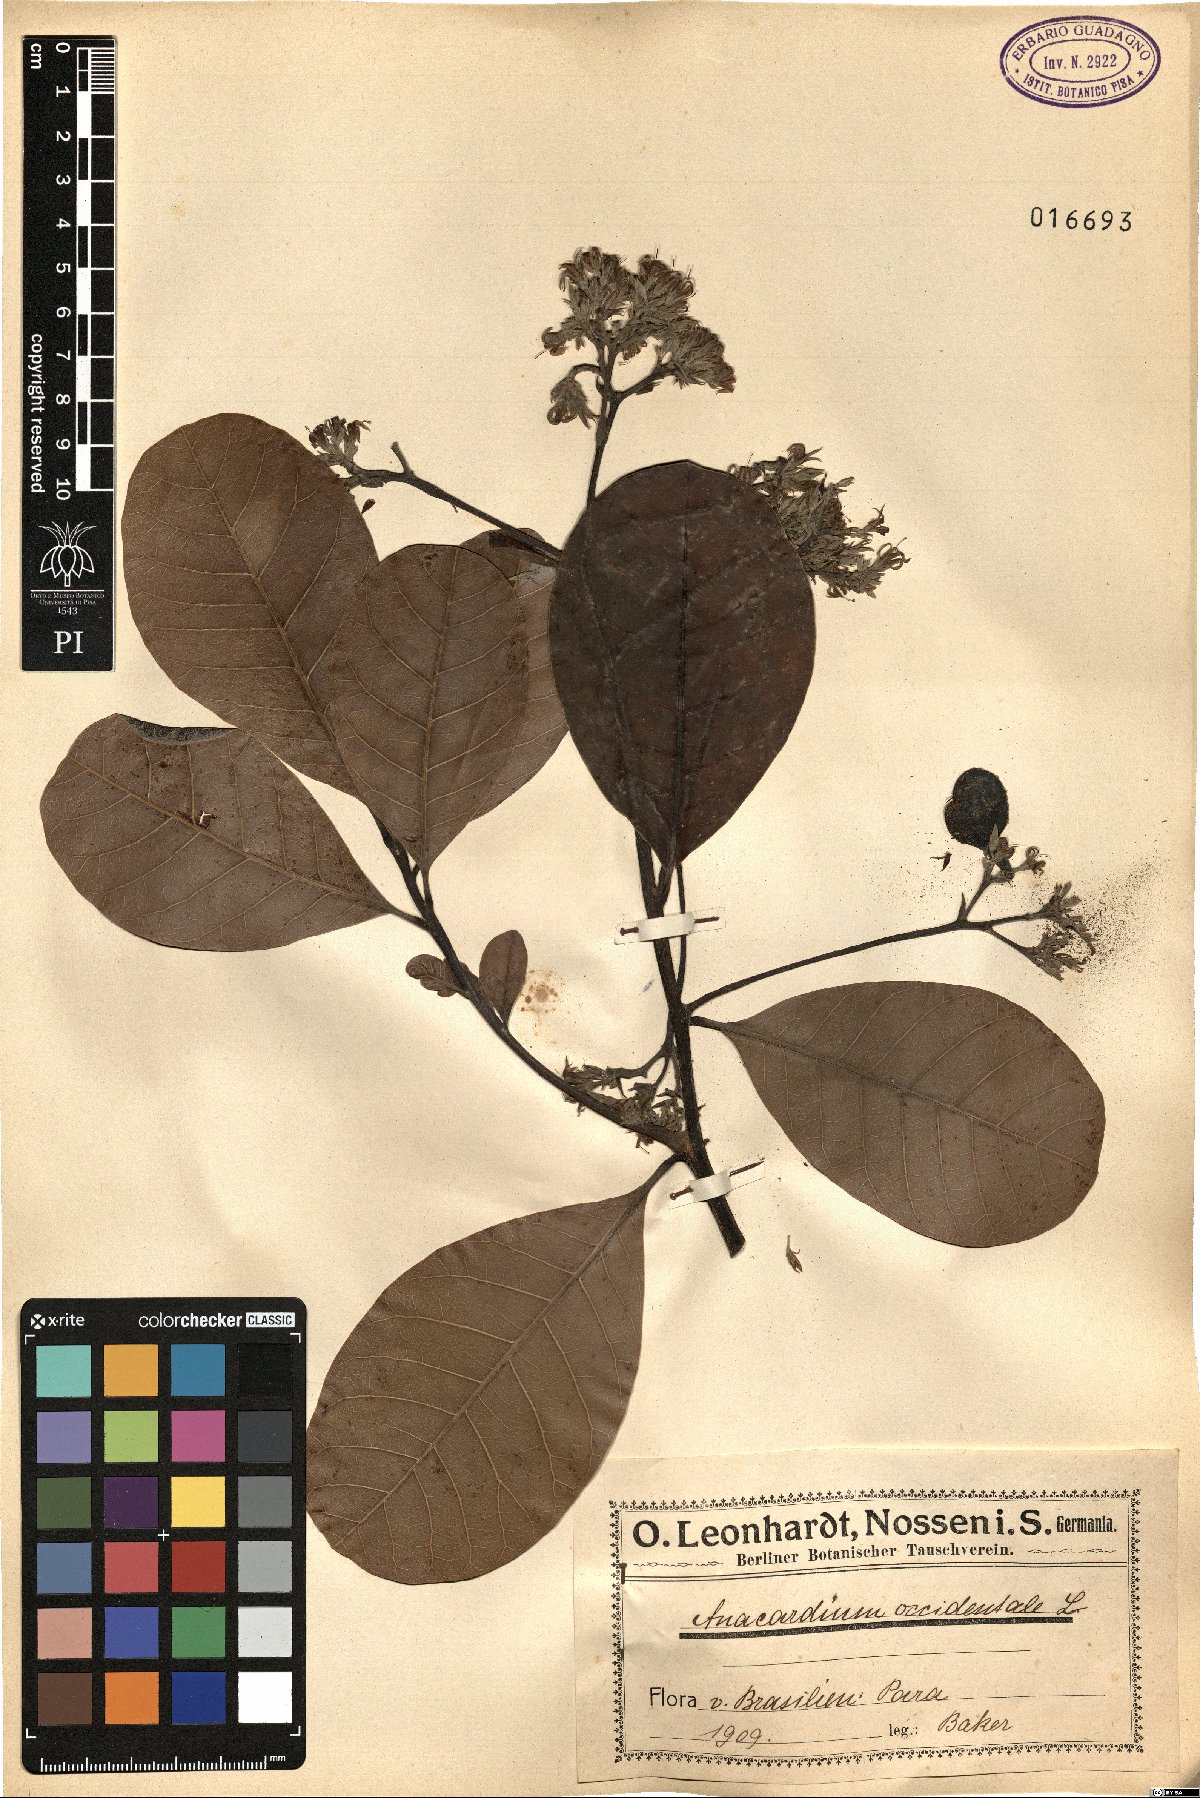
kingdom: Plantae
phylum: Tracheophyta
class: Magnoliopsida
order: Sapindales
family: Anacardiaceae
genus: Anacardium
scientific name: Anacardium occidentale
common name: Cashew
